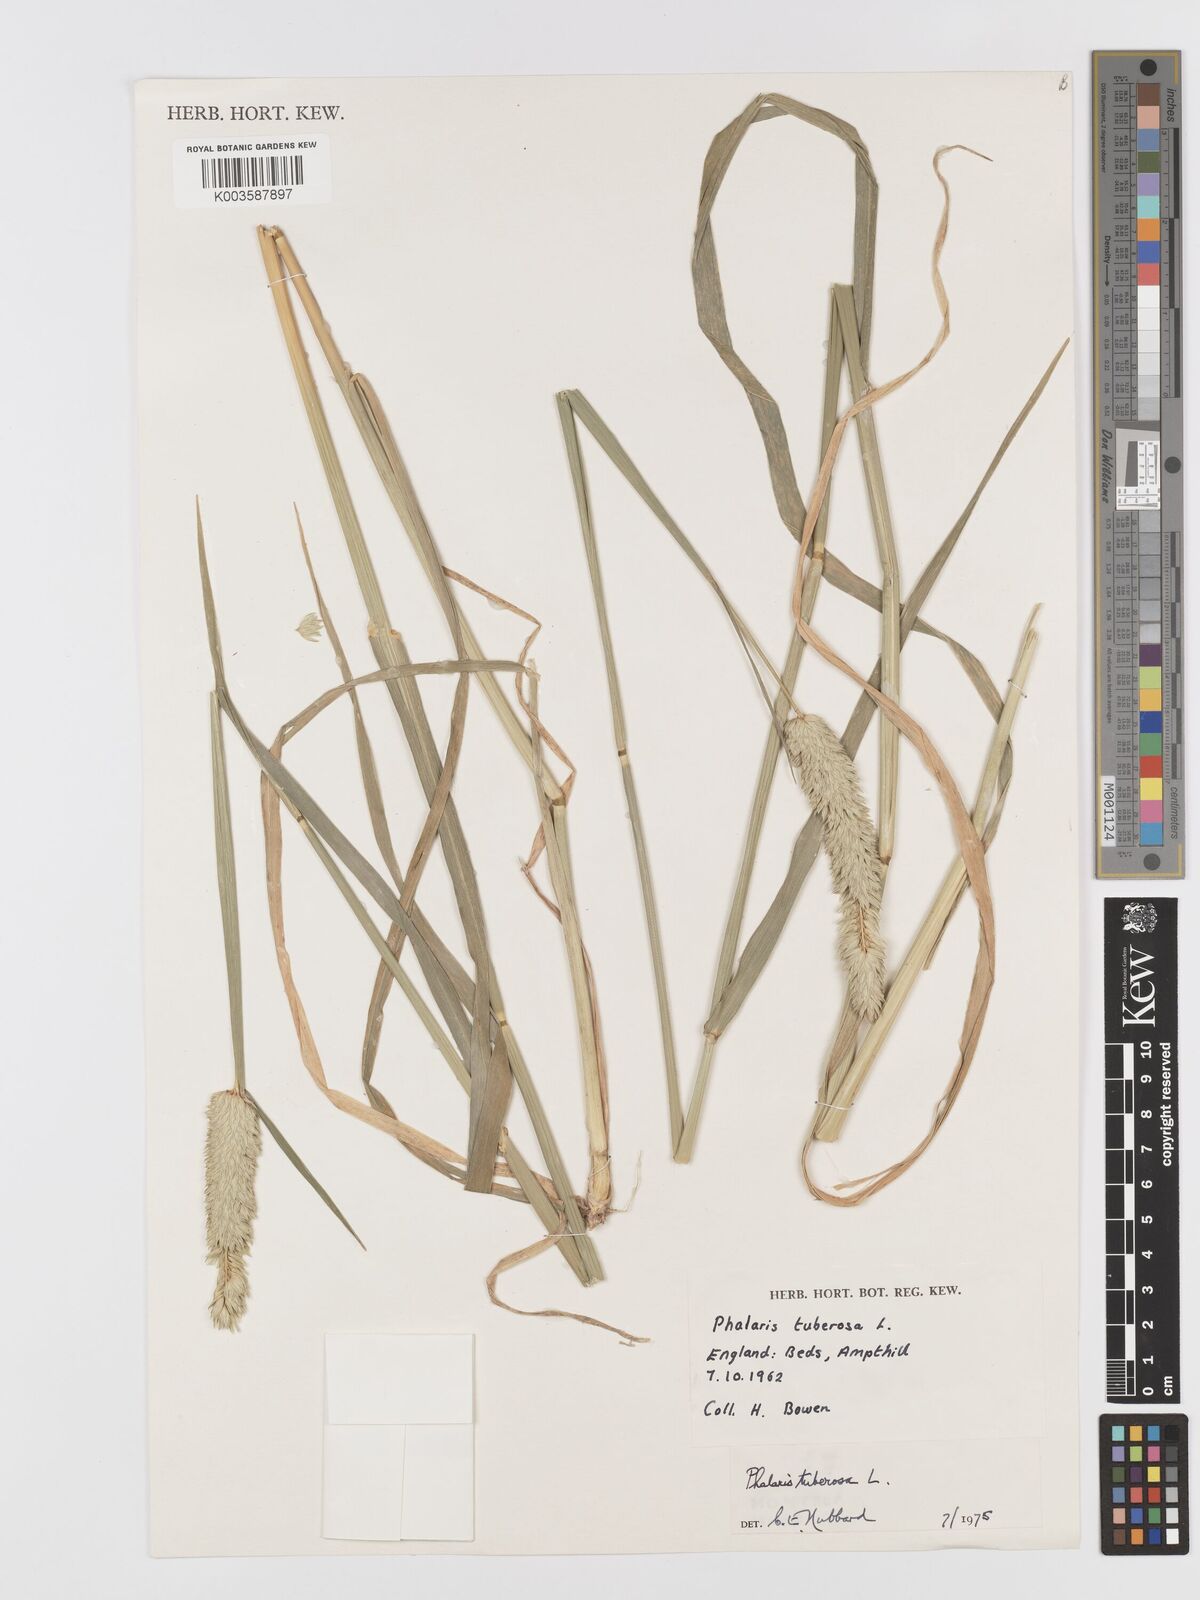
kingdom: Plantae
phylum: Tracheophyta
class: Liliopsida
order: Poales
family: Poaceae
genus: Phalaris
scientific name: Phalaris
